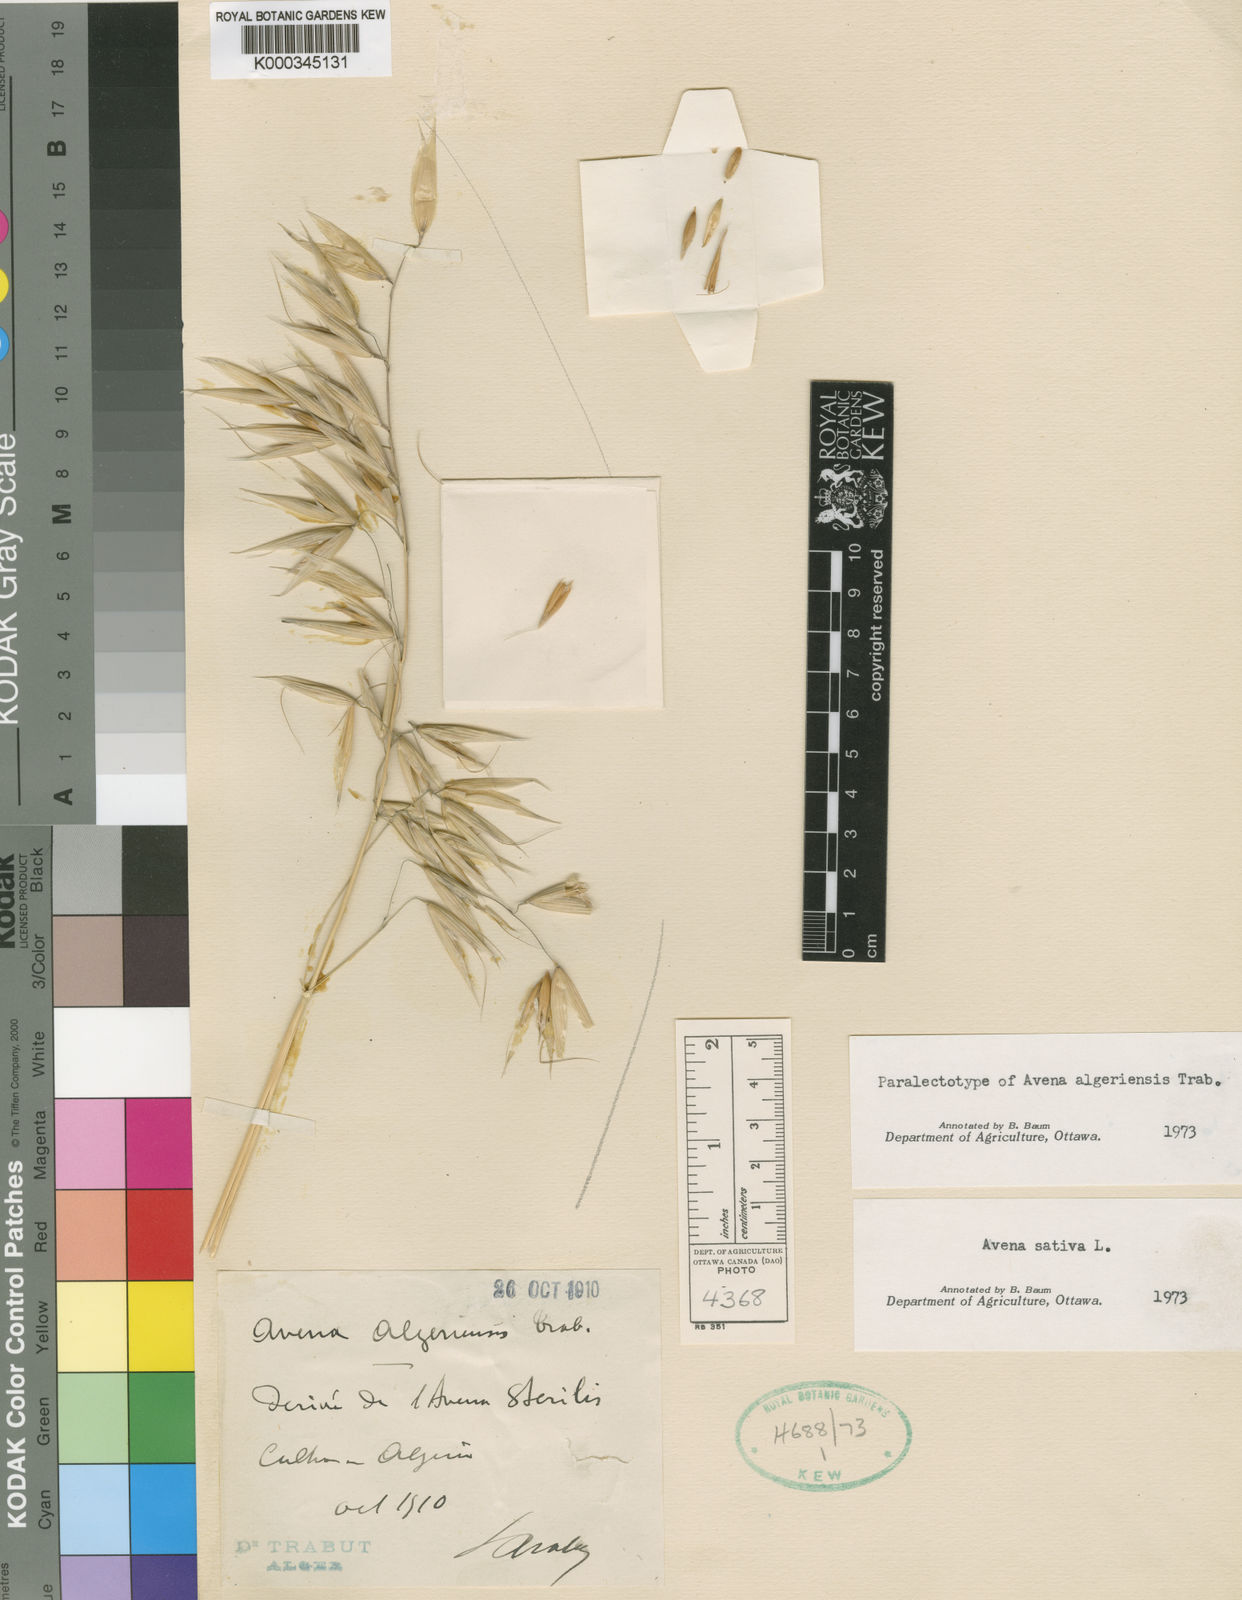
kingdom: Plantae
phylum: Tracheophyta
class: Liliopsida
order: Poales
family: Poaceae
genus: Avena
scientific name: Avena byzantina
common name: Algerian oat
